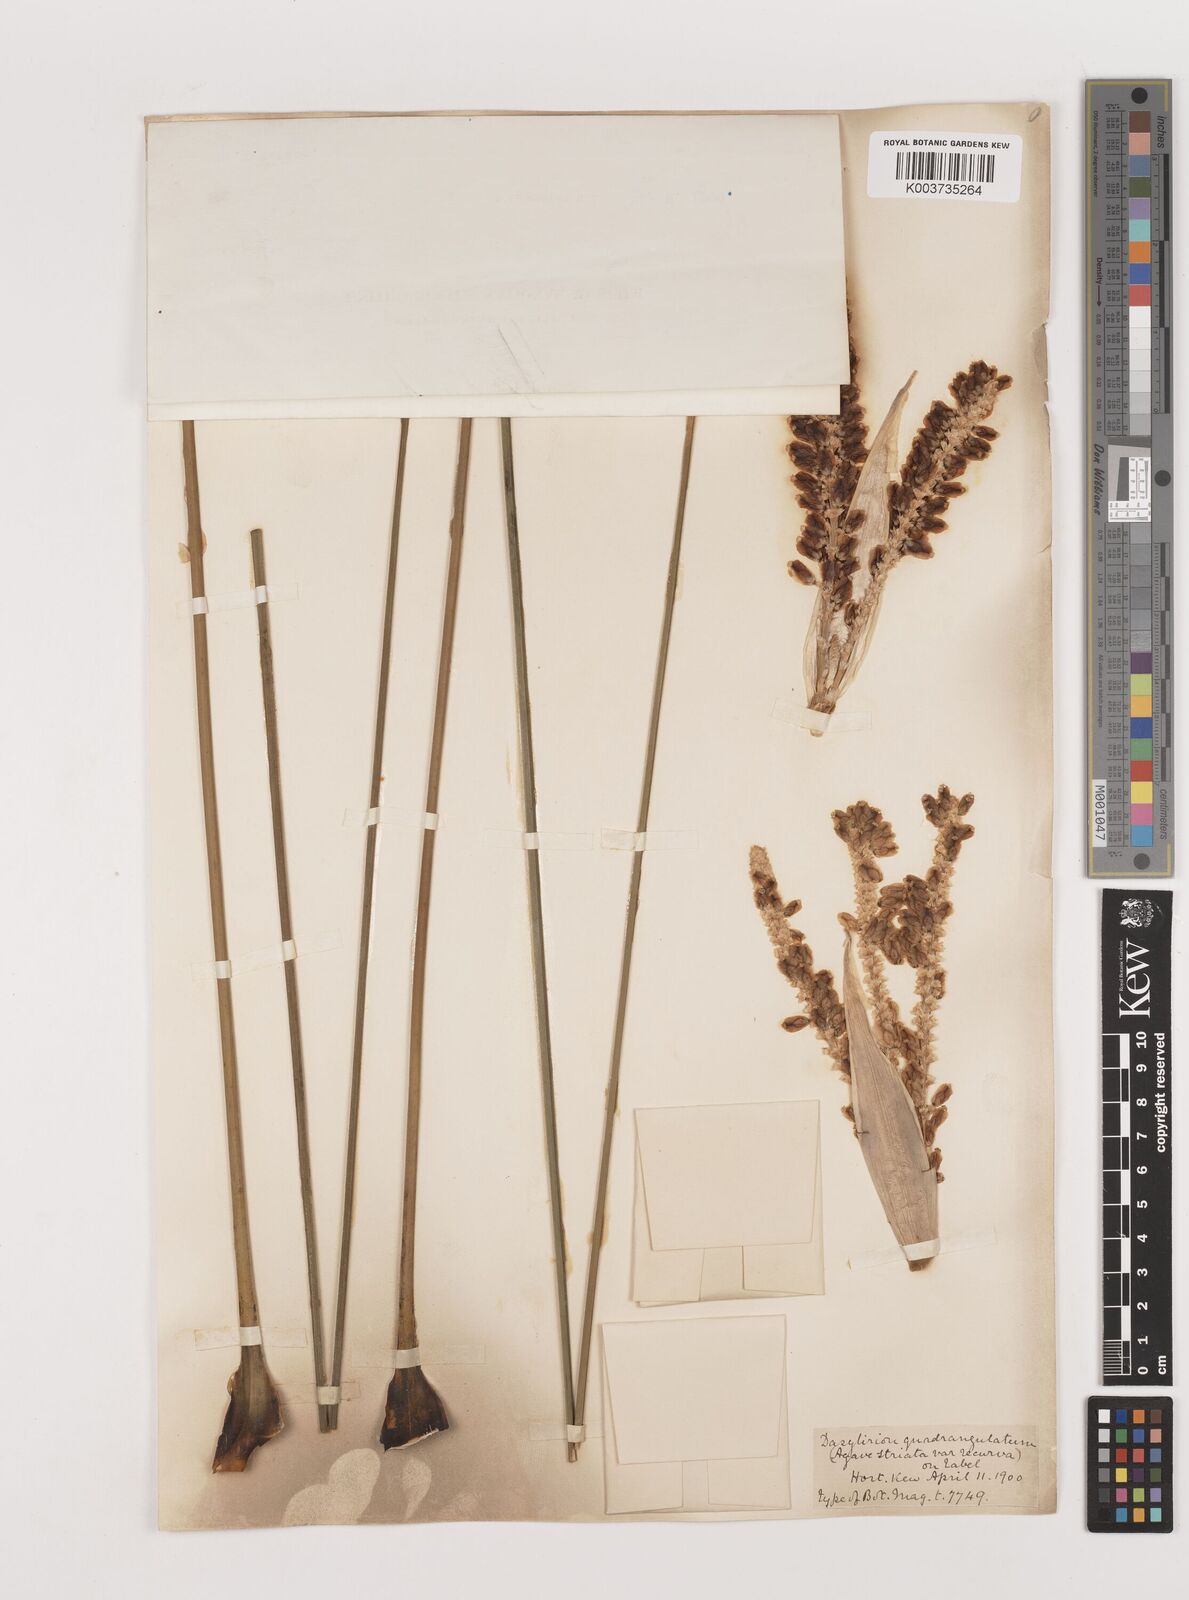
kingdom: Plantae
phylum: Tracheophyta
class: Liliopsida
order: Asparagales
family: Asparagaceae
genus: Dasylirion
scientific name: Dasylirion longissimum
